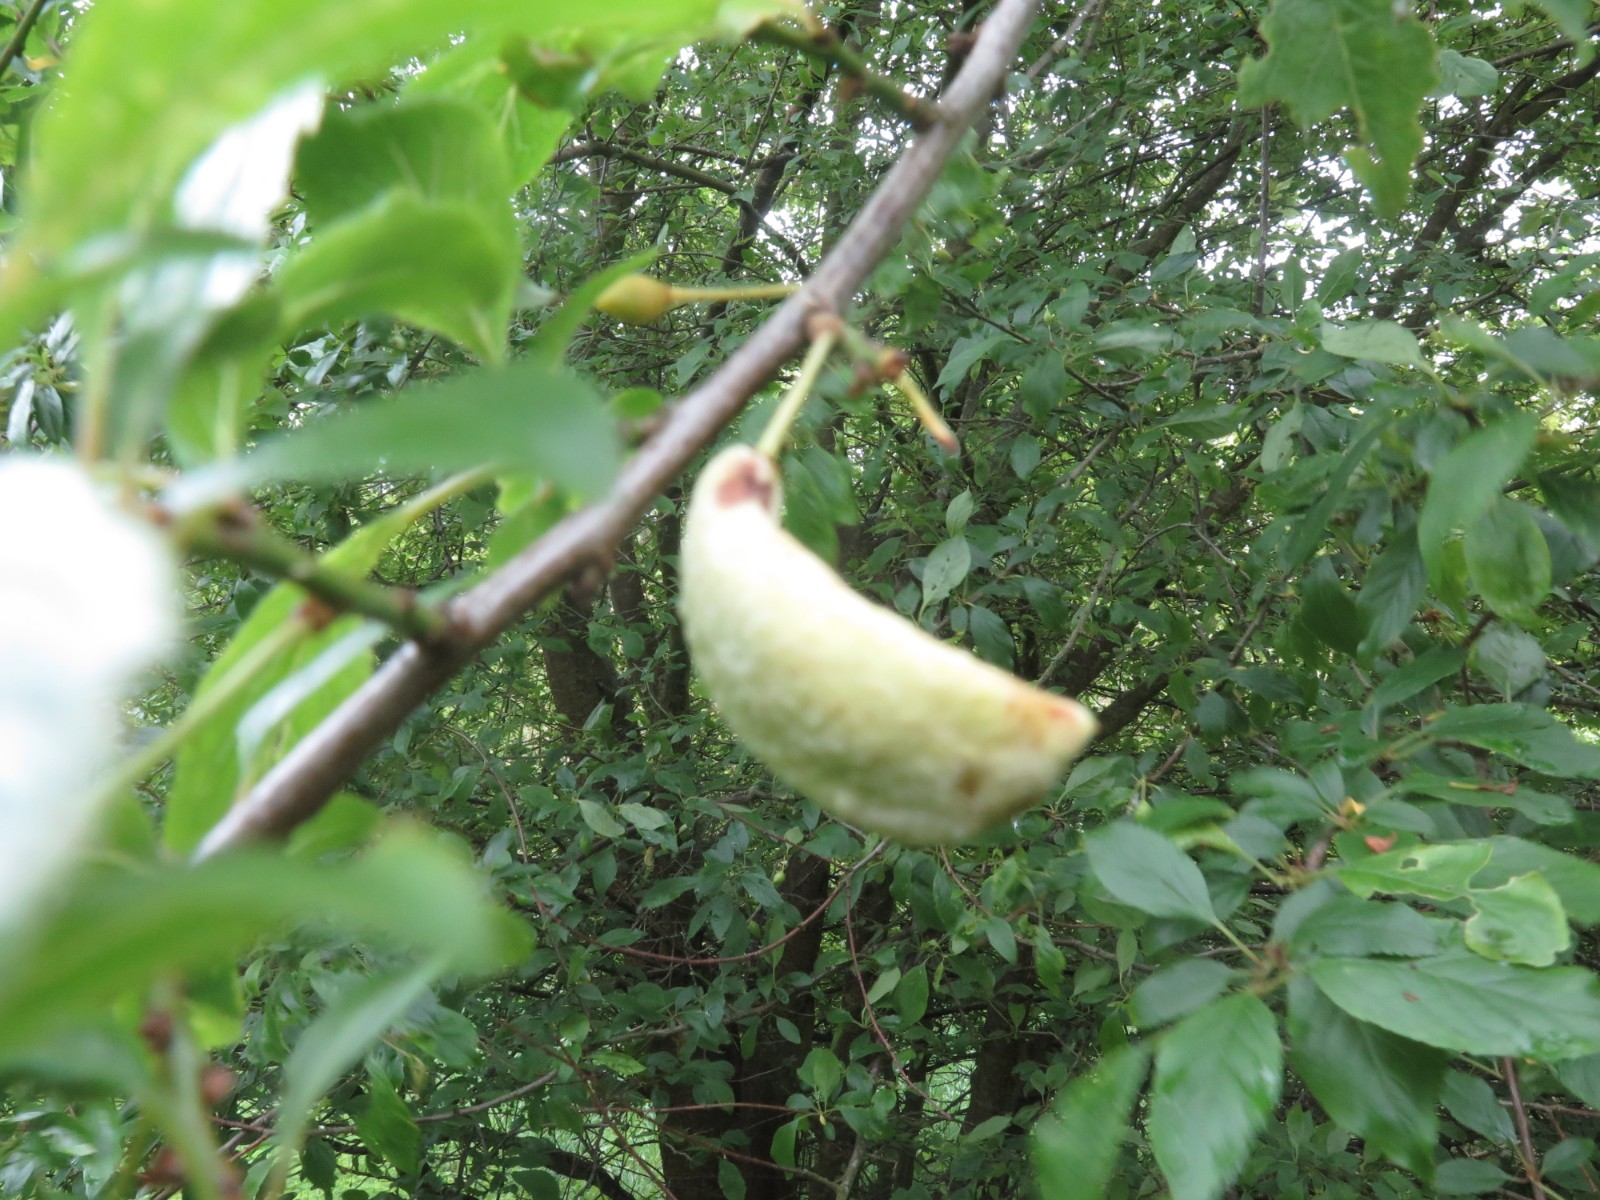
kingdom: Fungi
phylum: Ascomycota
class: Taphrinomycetes
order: Taphrinales
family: Taphrinaceae
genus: Taphrina
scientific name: Taphrina pruni
